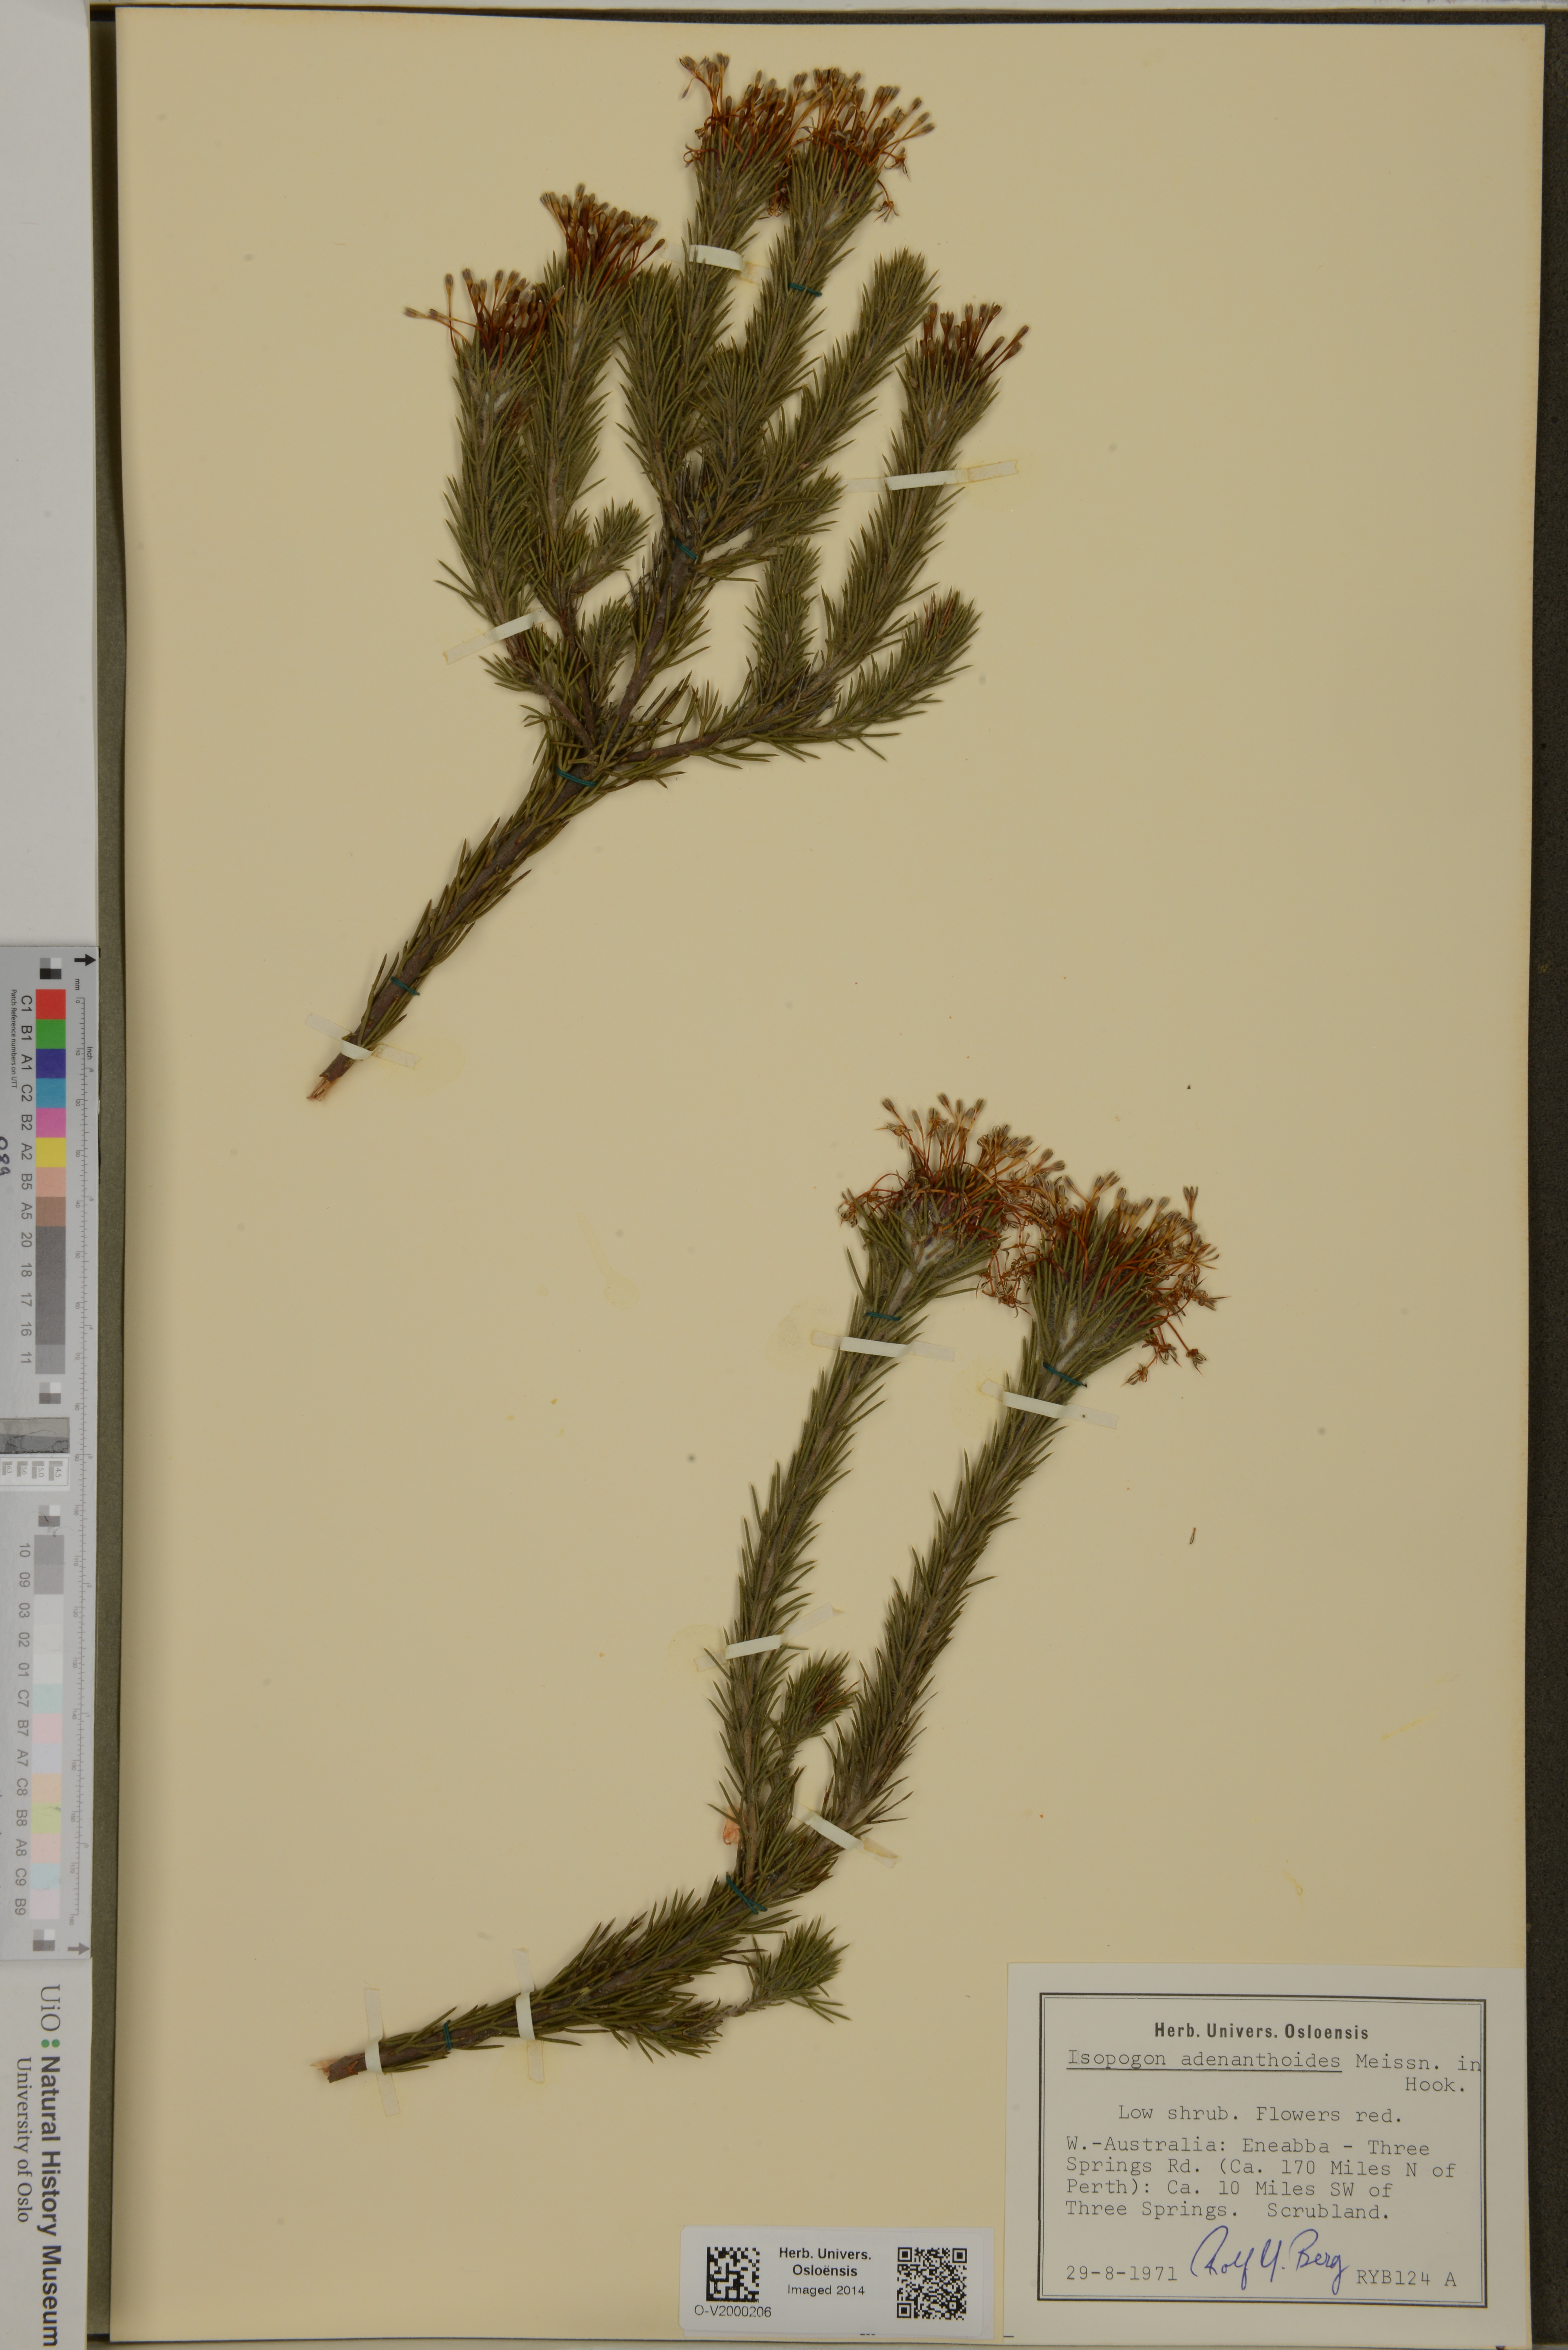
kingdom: Plantae
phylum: Tracheophyta
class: Magnoliopsida
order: Proteales
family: Proteaceae
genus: Isopogon
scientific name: Isopogon adenanthoides
